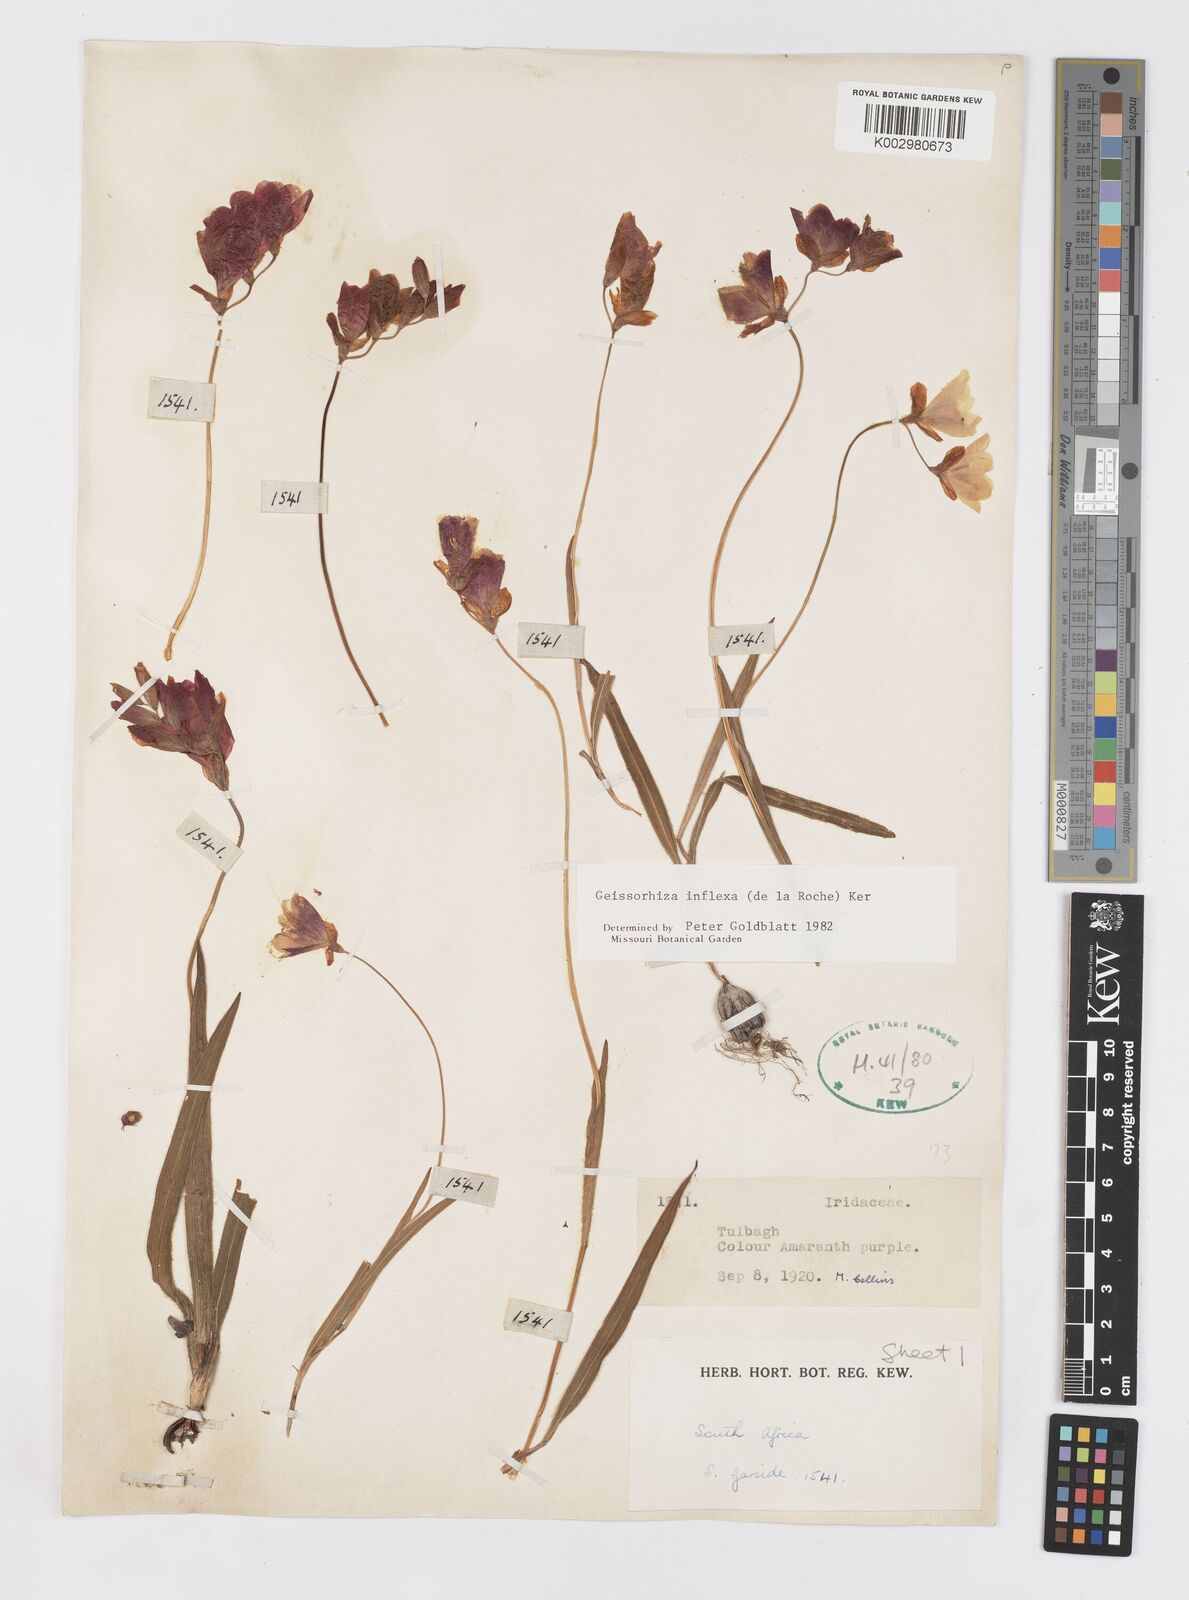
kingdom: Plantae
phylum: Tracheophyta
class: Liliopsida
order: Asparagales
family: Iridaceae
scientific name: Iridaceae
